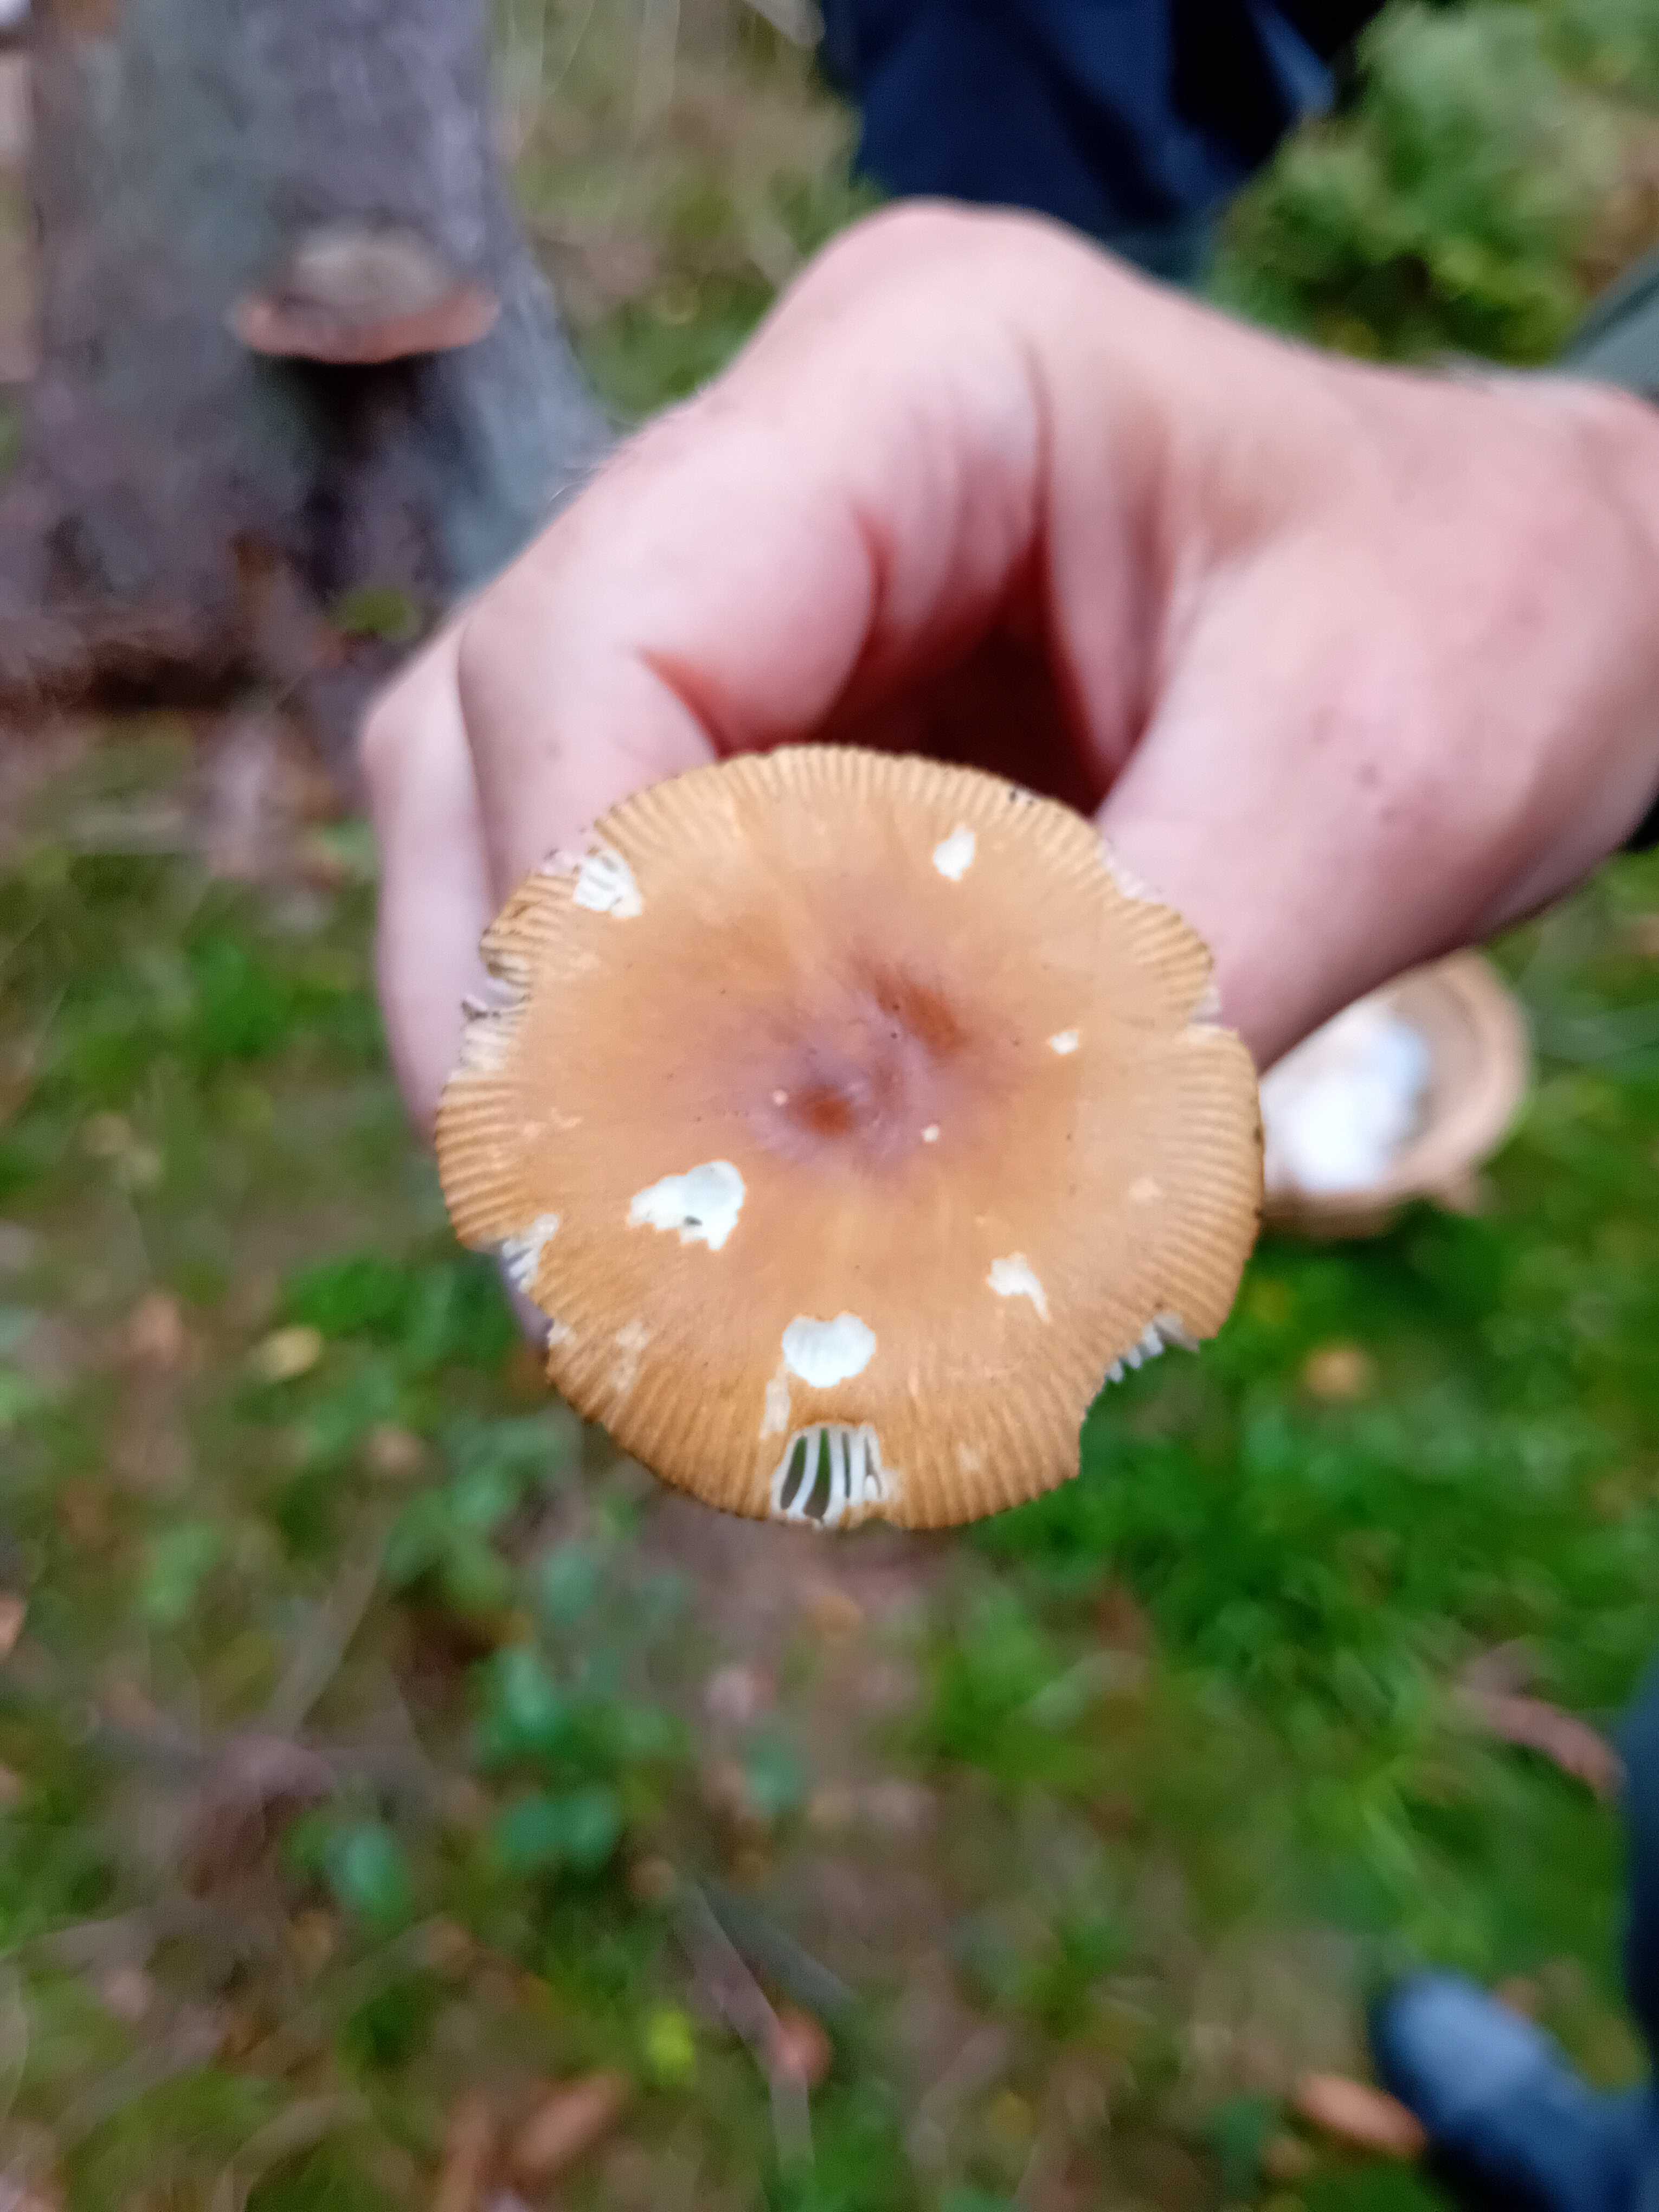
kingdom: Fungi
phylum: Basidiomycota
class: Agaricomycetes
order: Agaricales
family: Amanitaceae
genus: Amanita
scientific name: Amanita fulva
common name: brun kam-fluesvamp
